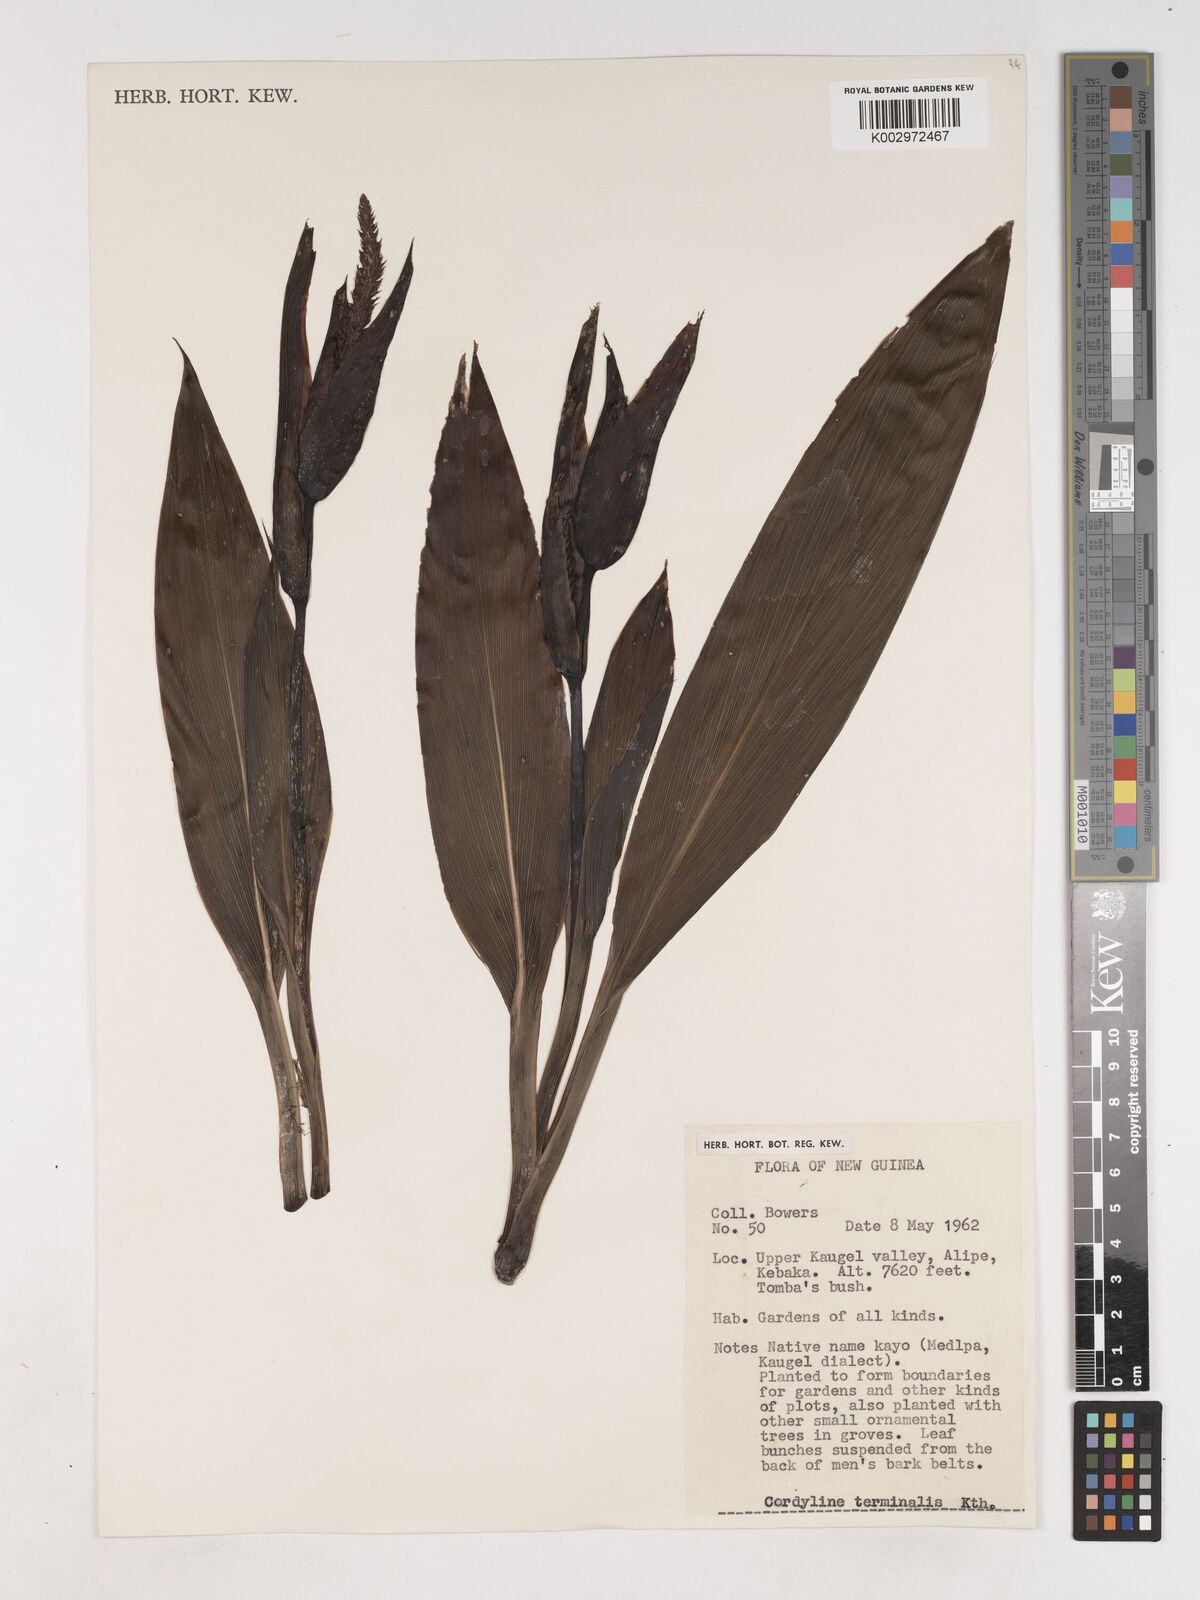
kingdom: Plantae
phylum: Tracheophyta
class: Liliopsida
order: Asparagales
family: Asparagaceae
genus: Cordyline
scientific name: Cordyline fruticosa
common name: Good-luck-plant
